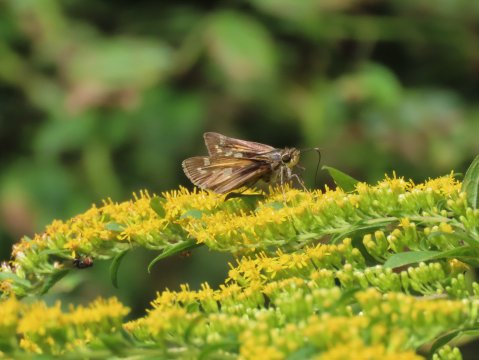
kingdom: Animalia
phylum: Arthropoda
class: Insecta
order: Lepidoptera
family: Hesperiidae
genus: Atalopedes
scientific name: Atalopedes campestris
